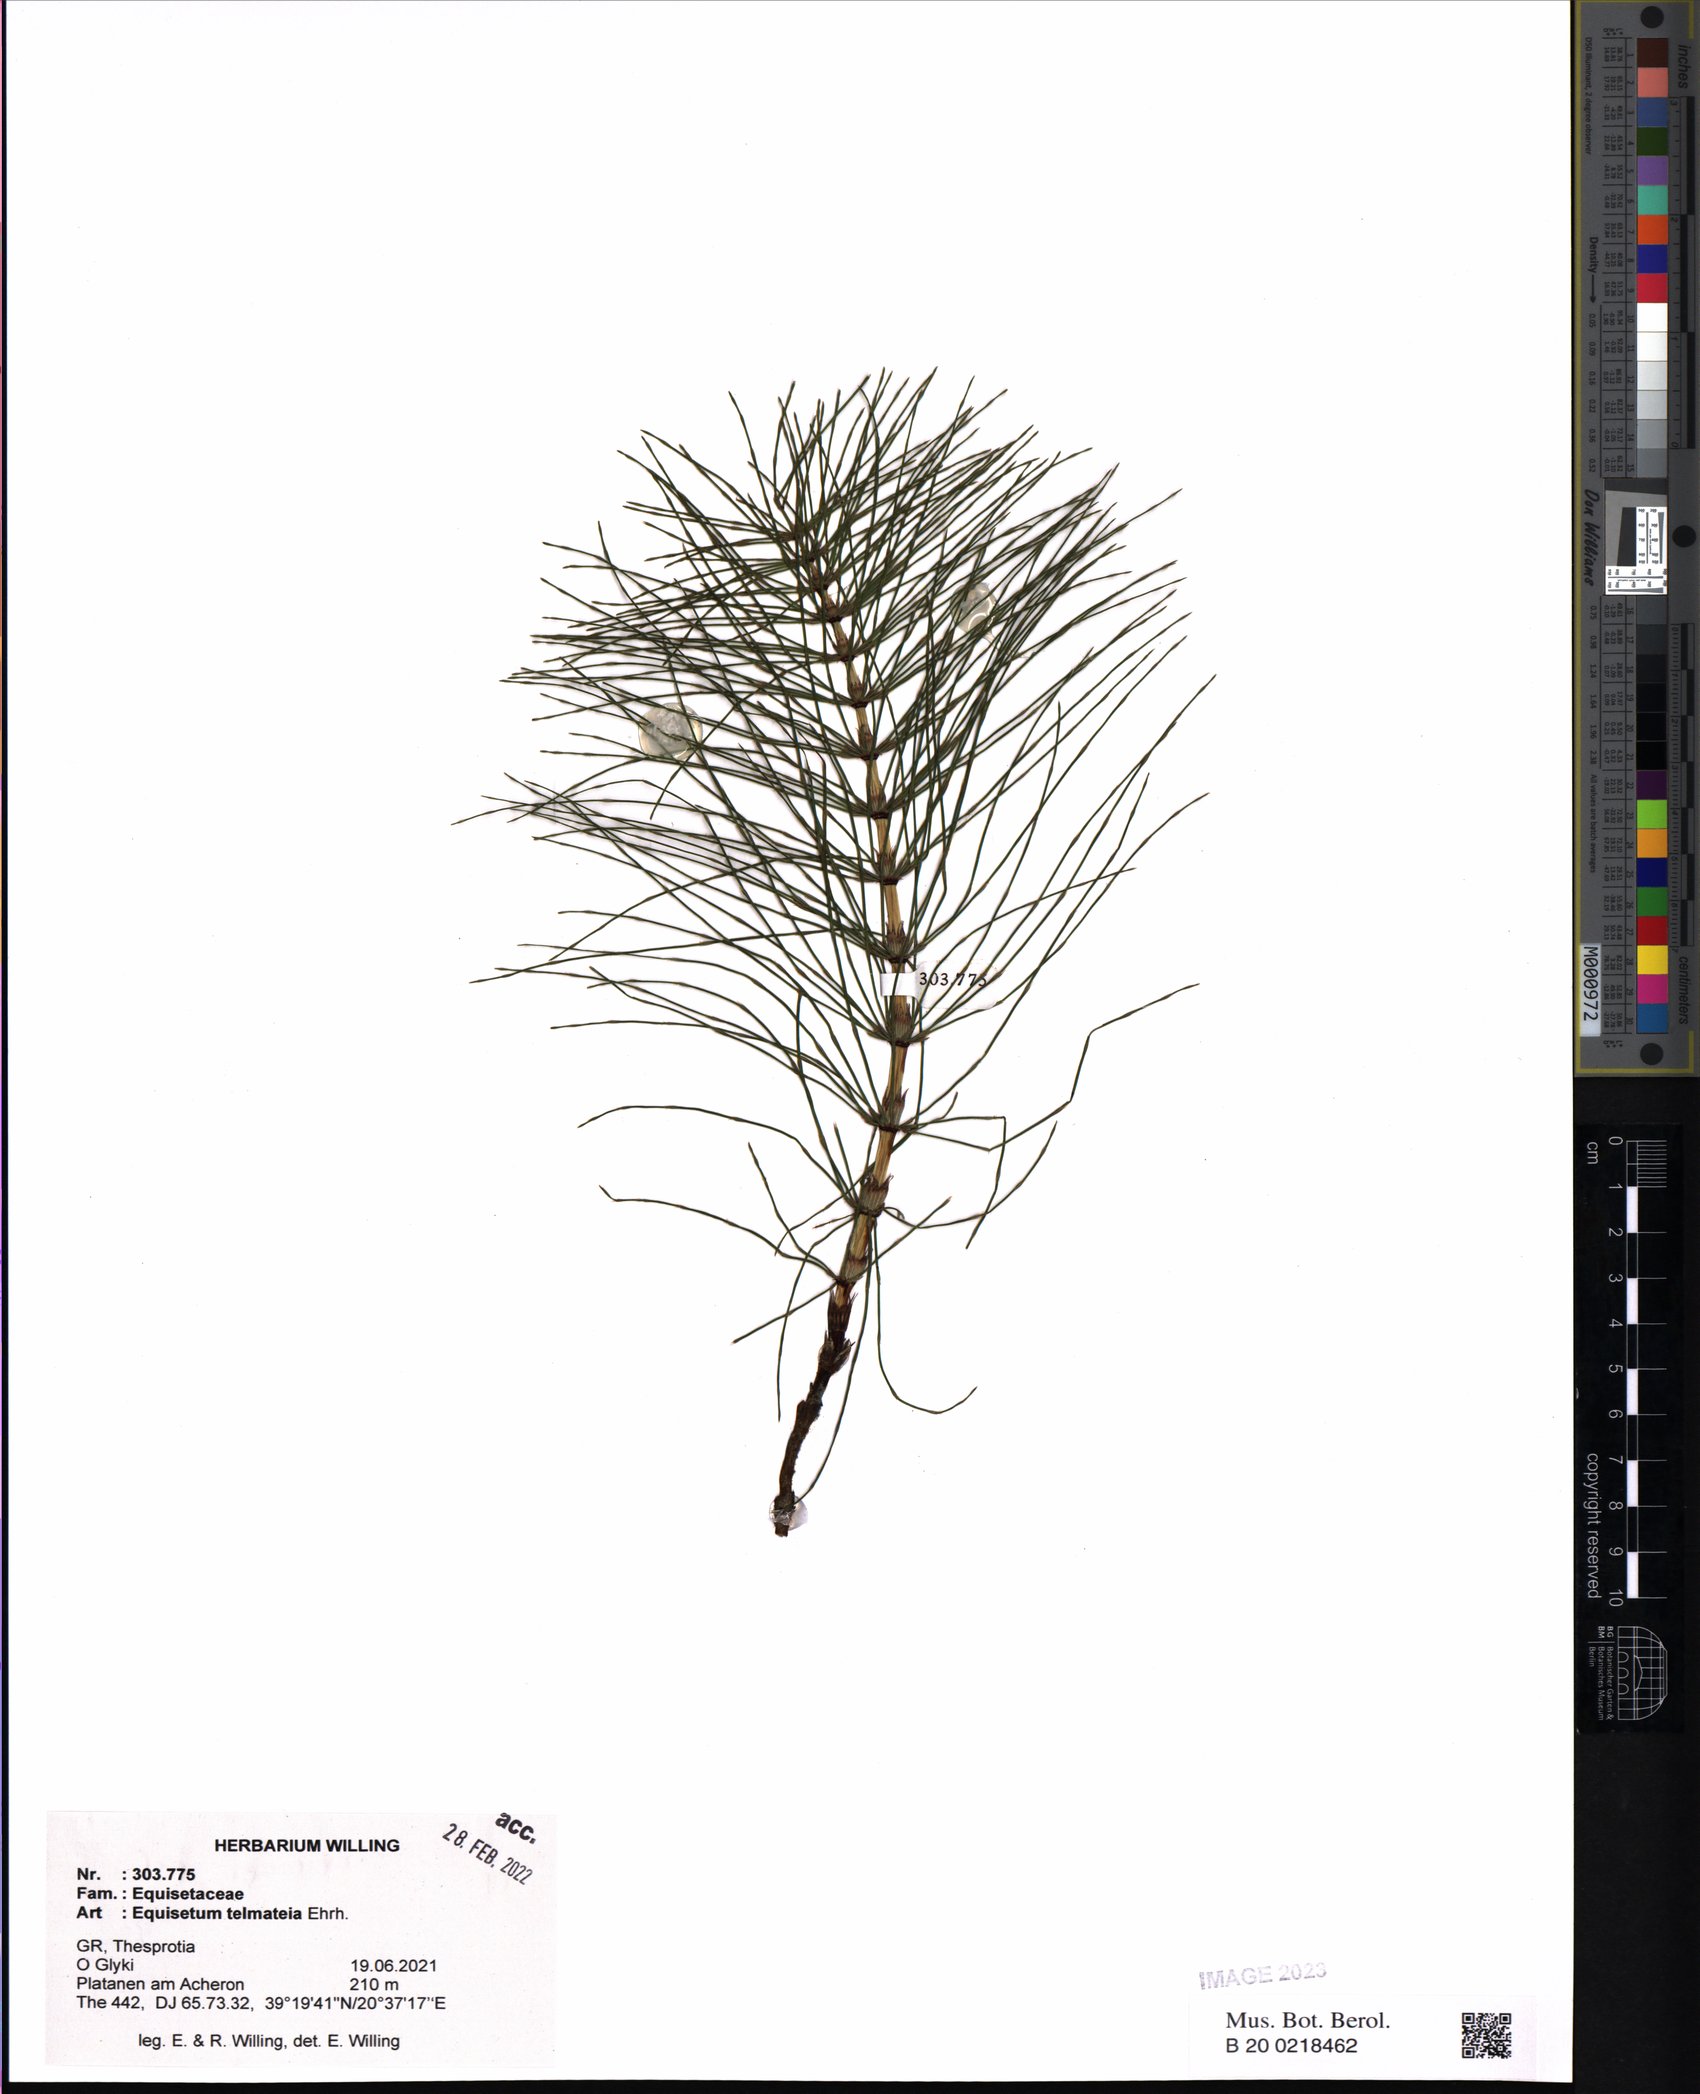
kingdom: Plantae
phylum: Tracheophyta
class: Polypodiopsida
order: Equisetales
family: Equisetaceae
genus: Equisetum
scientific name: Equisetum telmateia
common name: Great horsetail
